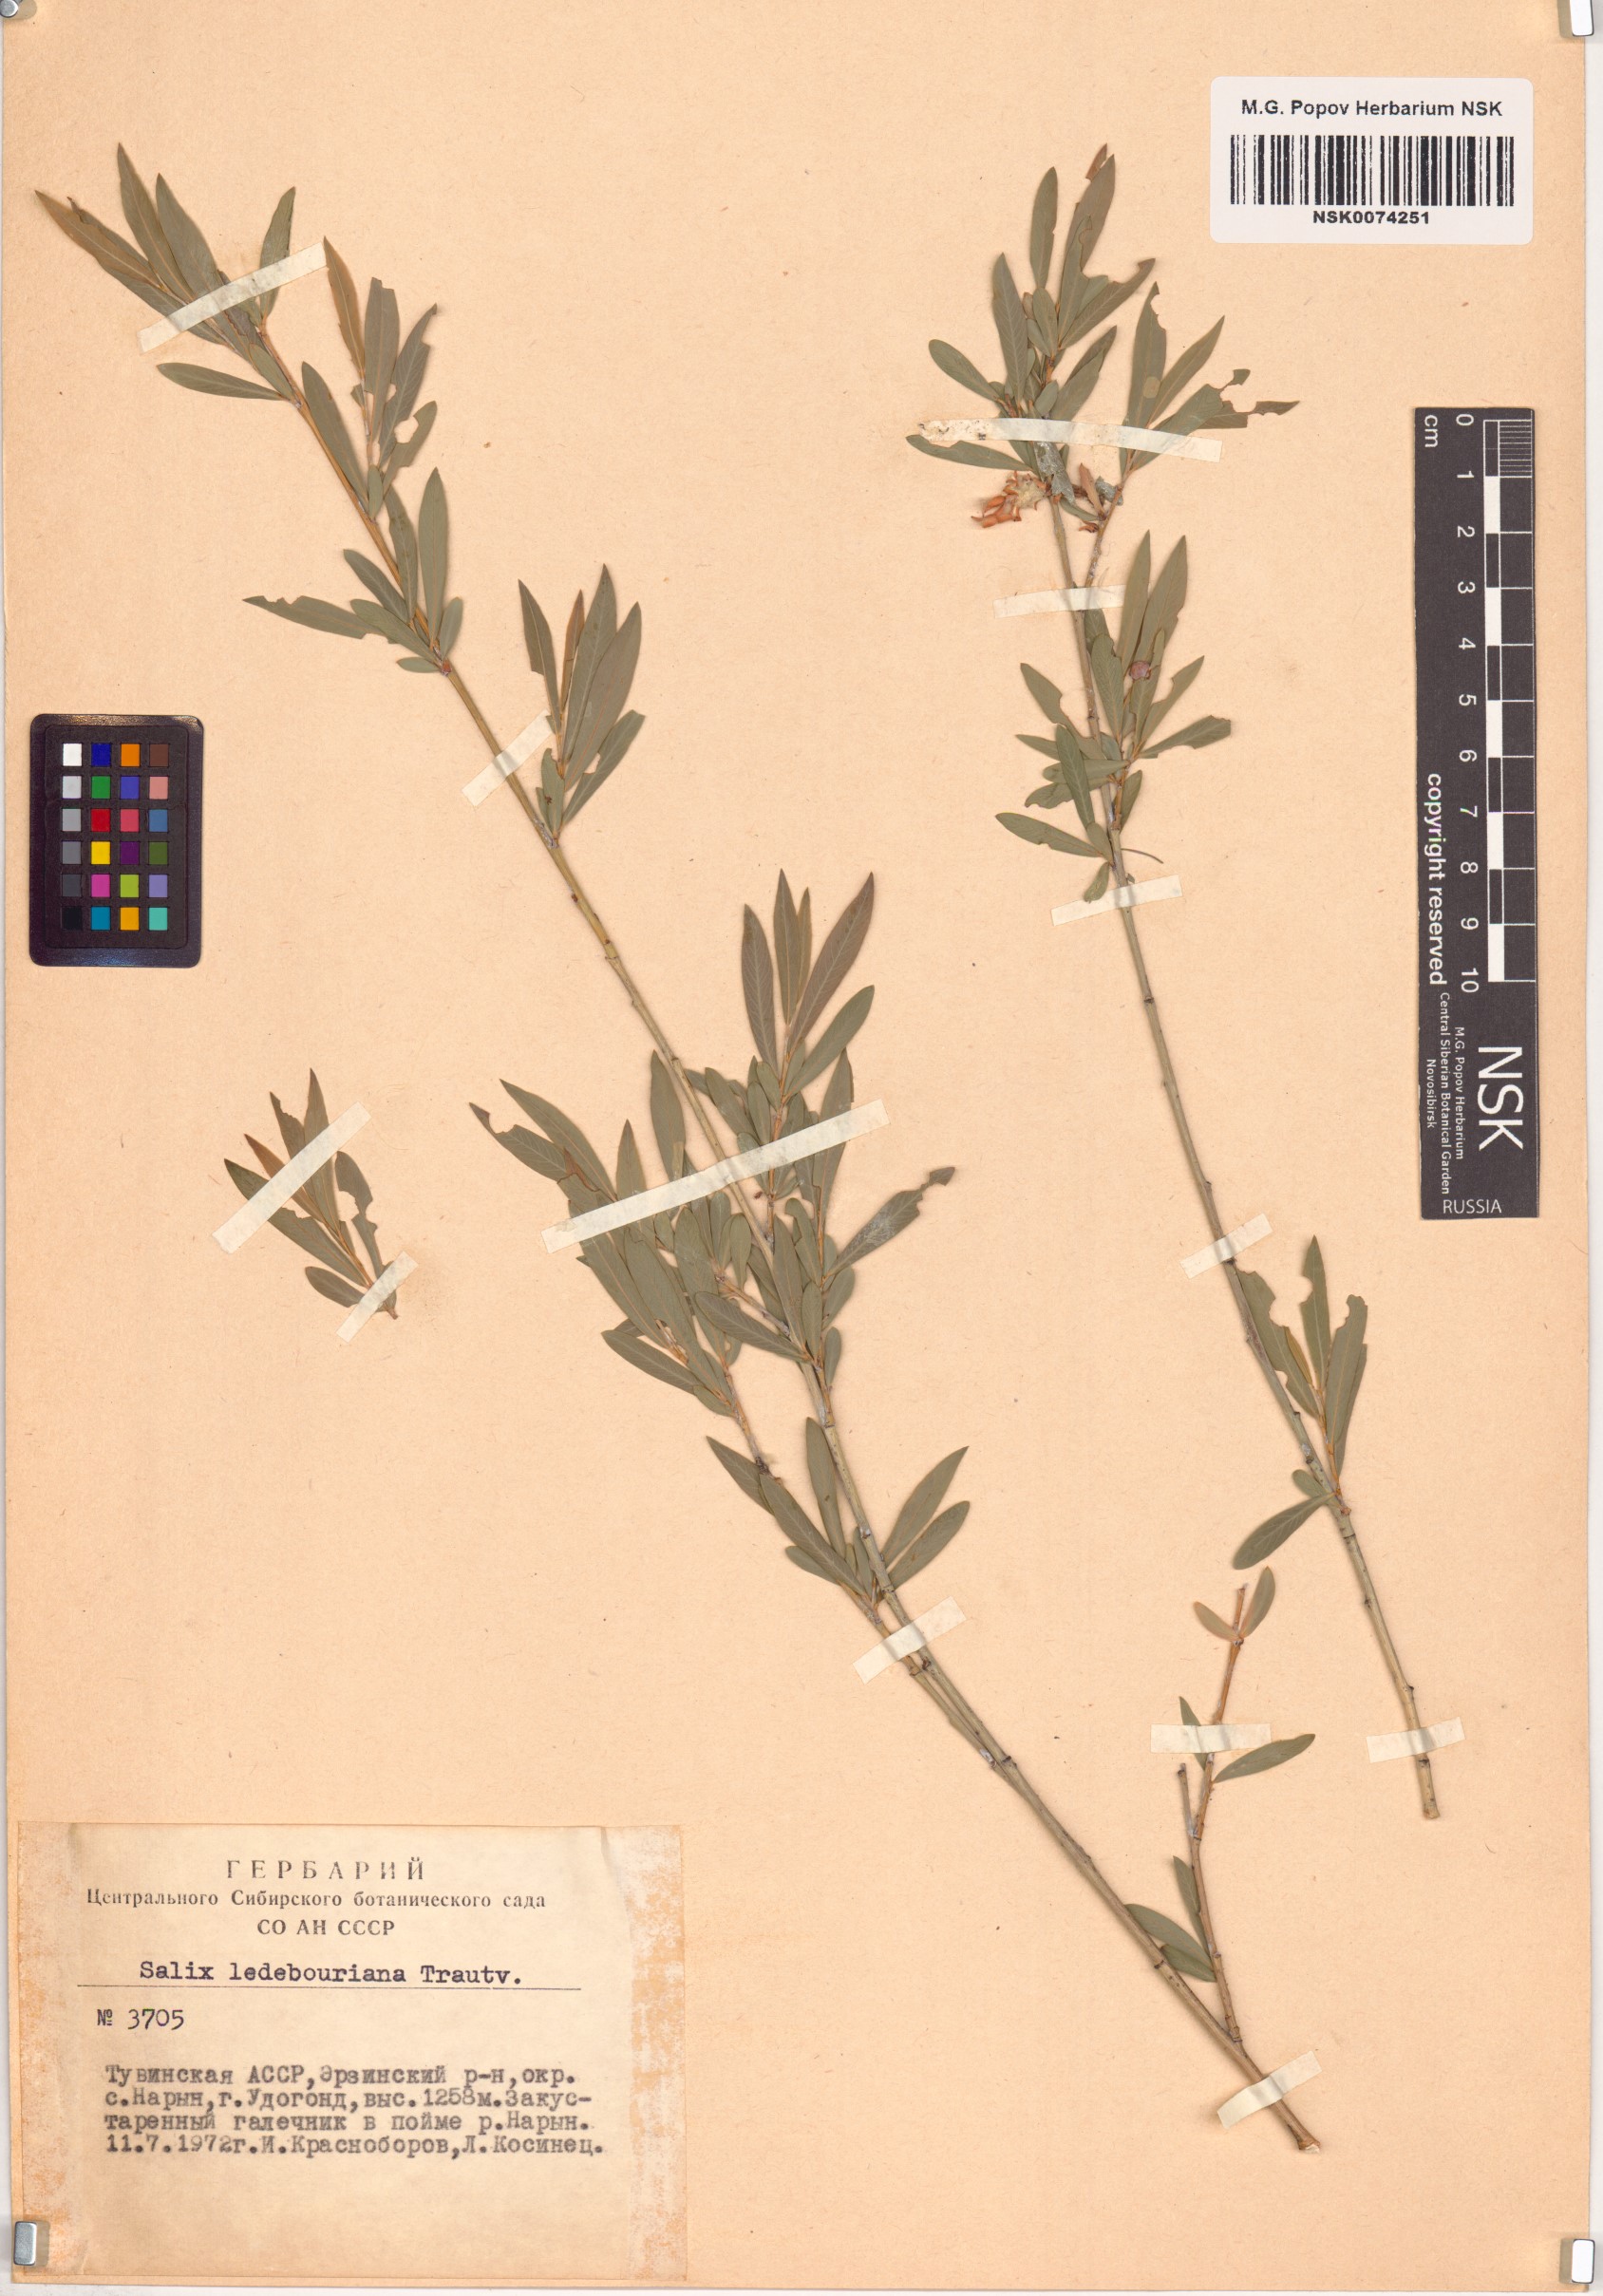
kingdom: Plantae
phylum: Tracheophyta
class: Magnoliopsida
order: Malpighiales
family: Salicaceae
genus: Salix
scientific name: Salix ledebouriana
